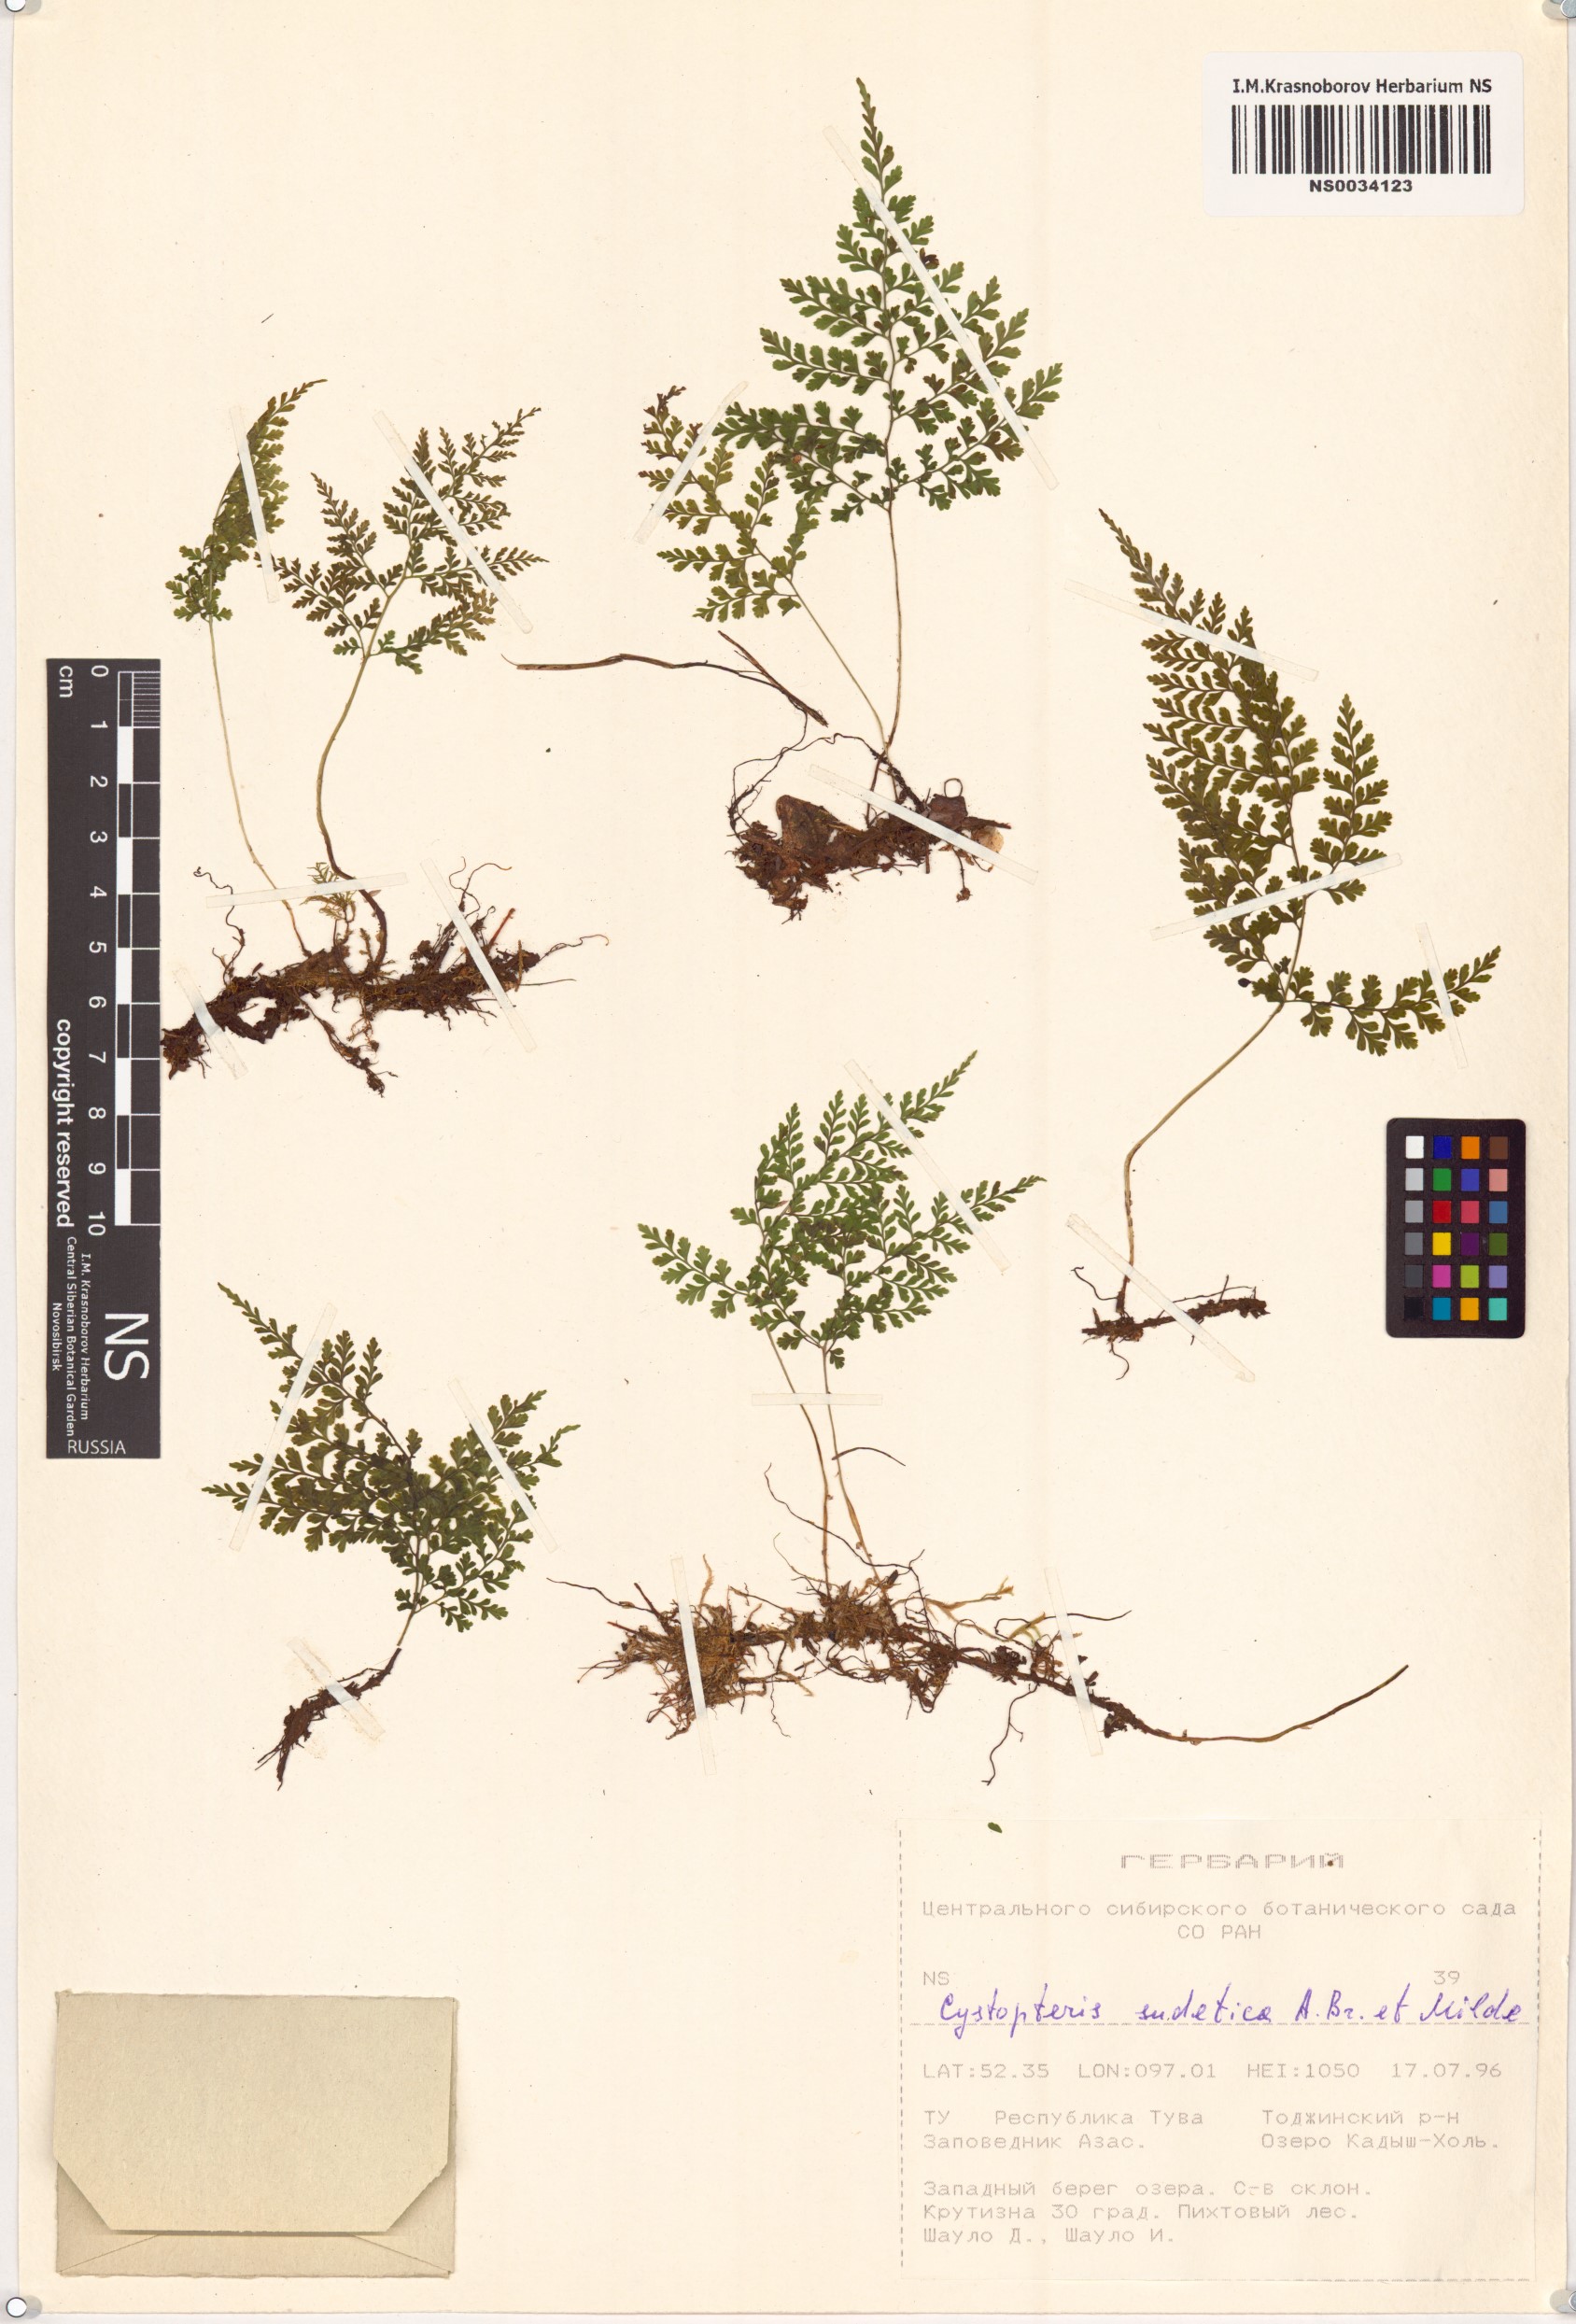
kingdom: Plantae
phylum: Tracheophyta
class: Polypodiopsida
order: Polypodiales
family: Cystopteridaceae
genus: Cystopteris
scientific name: Cystopteris sudetica
